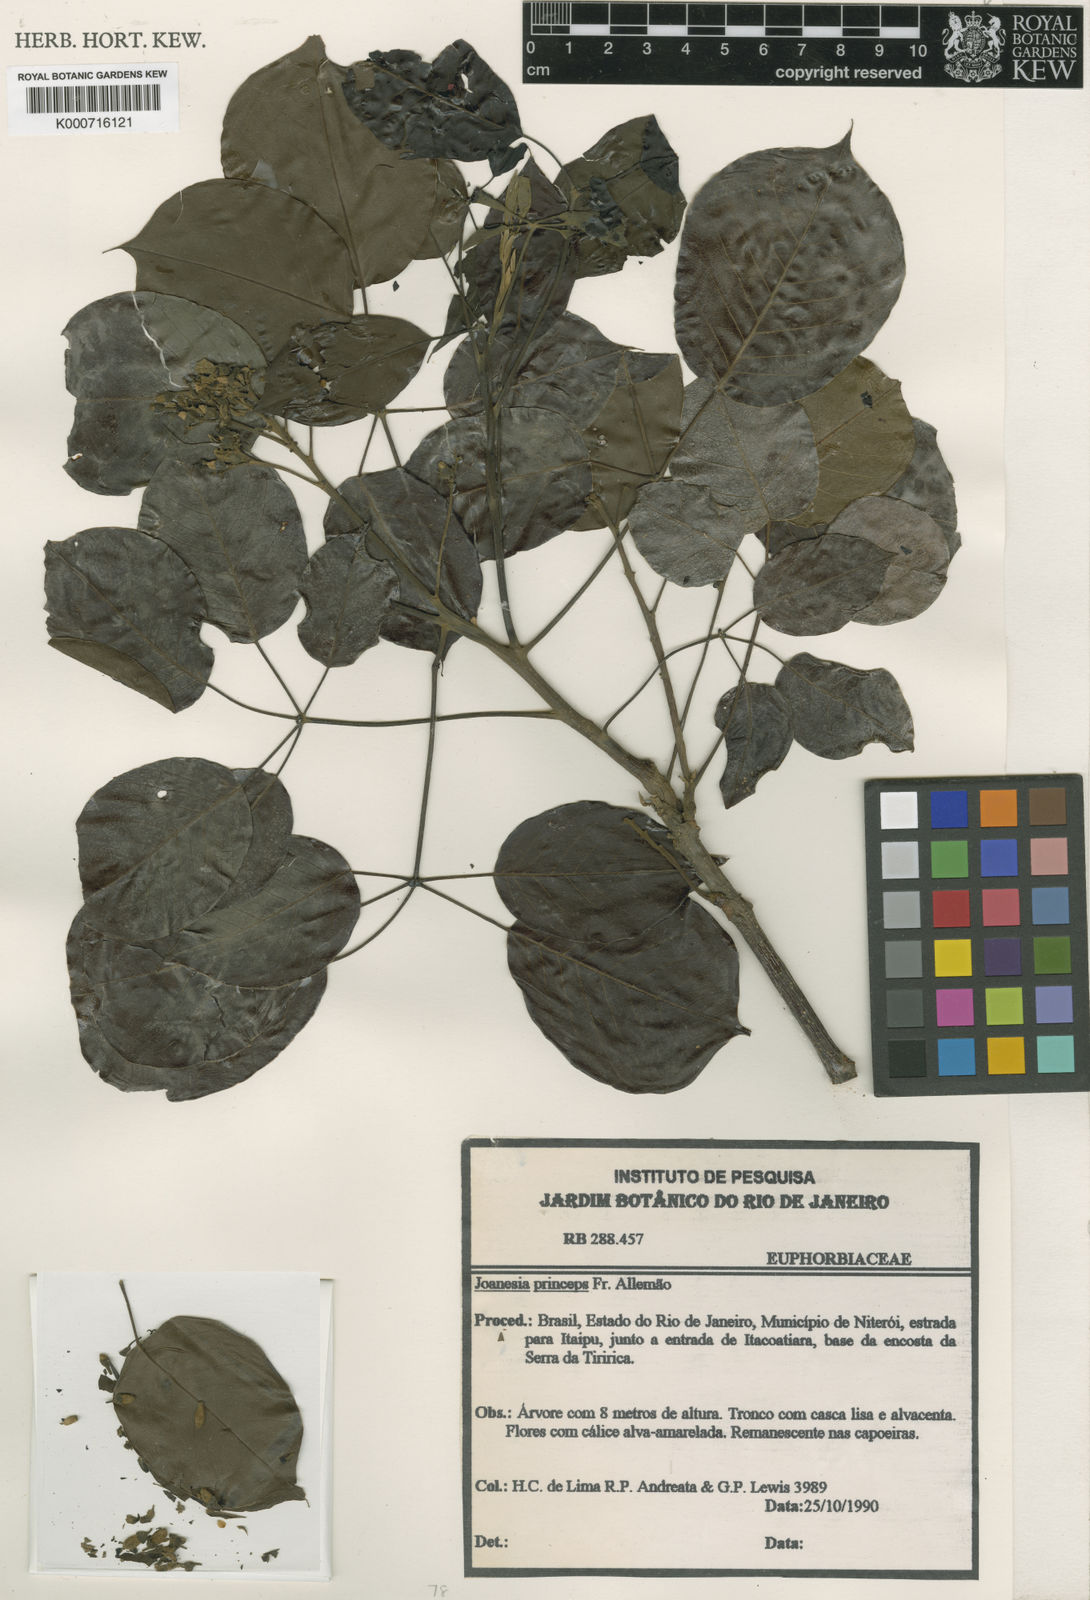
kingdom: Plantae
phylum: Tracheophyta
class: Magnoliopsida
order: Malpighiales
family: Euphorbiaceae
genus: Joannesia
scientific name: Joannesia princeps
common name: Arara nut-tree
